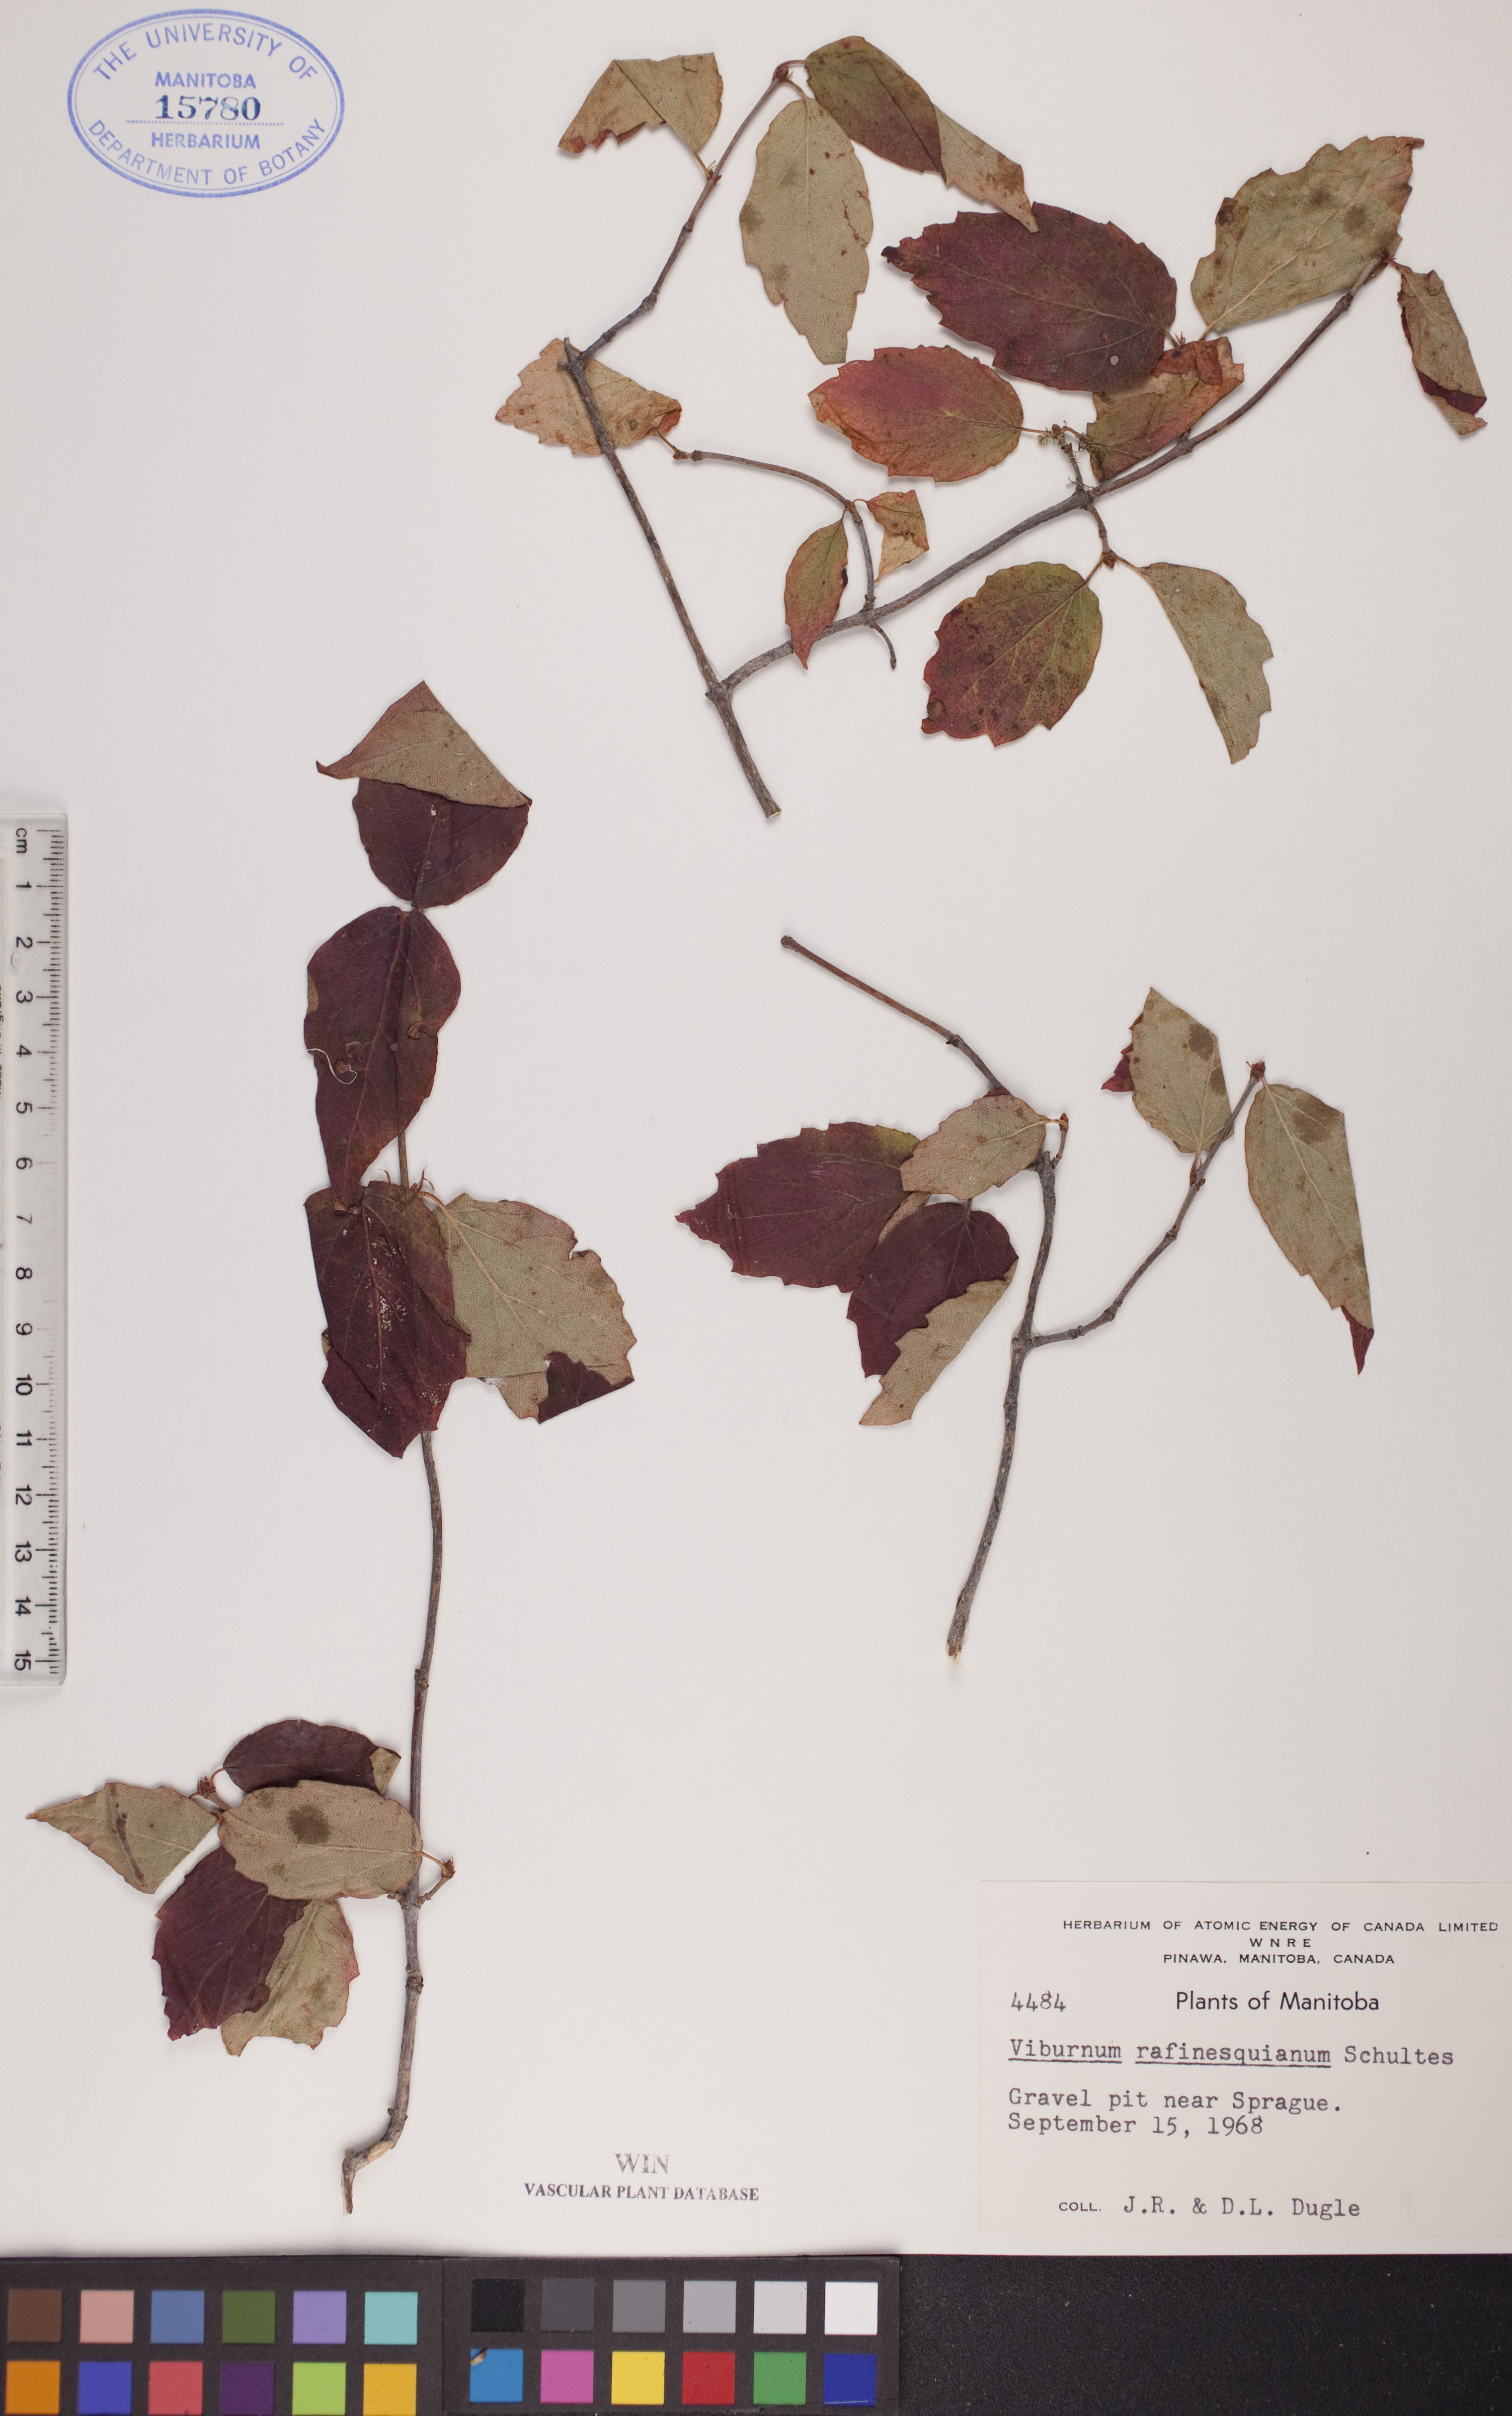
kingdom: Plantae
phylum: Tracheophyta
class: Magnoliopsida
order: Dipsacales
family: Viburnaceae
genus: Viburnum
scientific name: Viburnum rafinesquianum
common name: Downy arrow-wood
